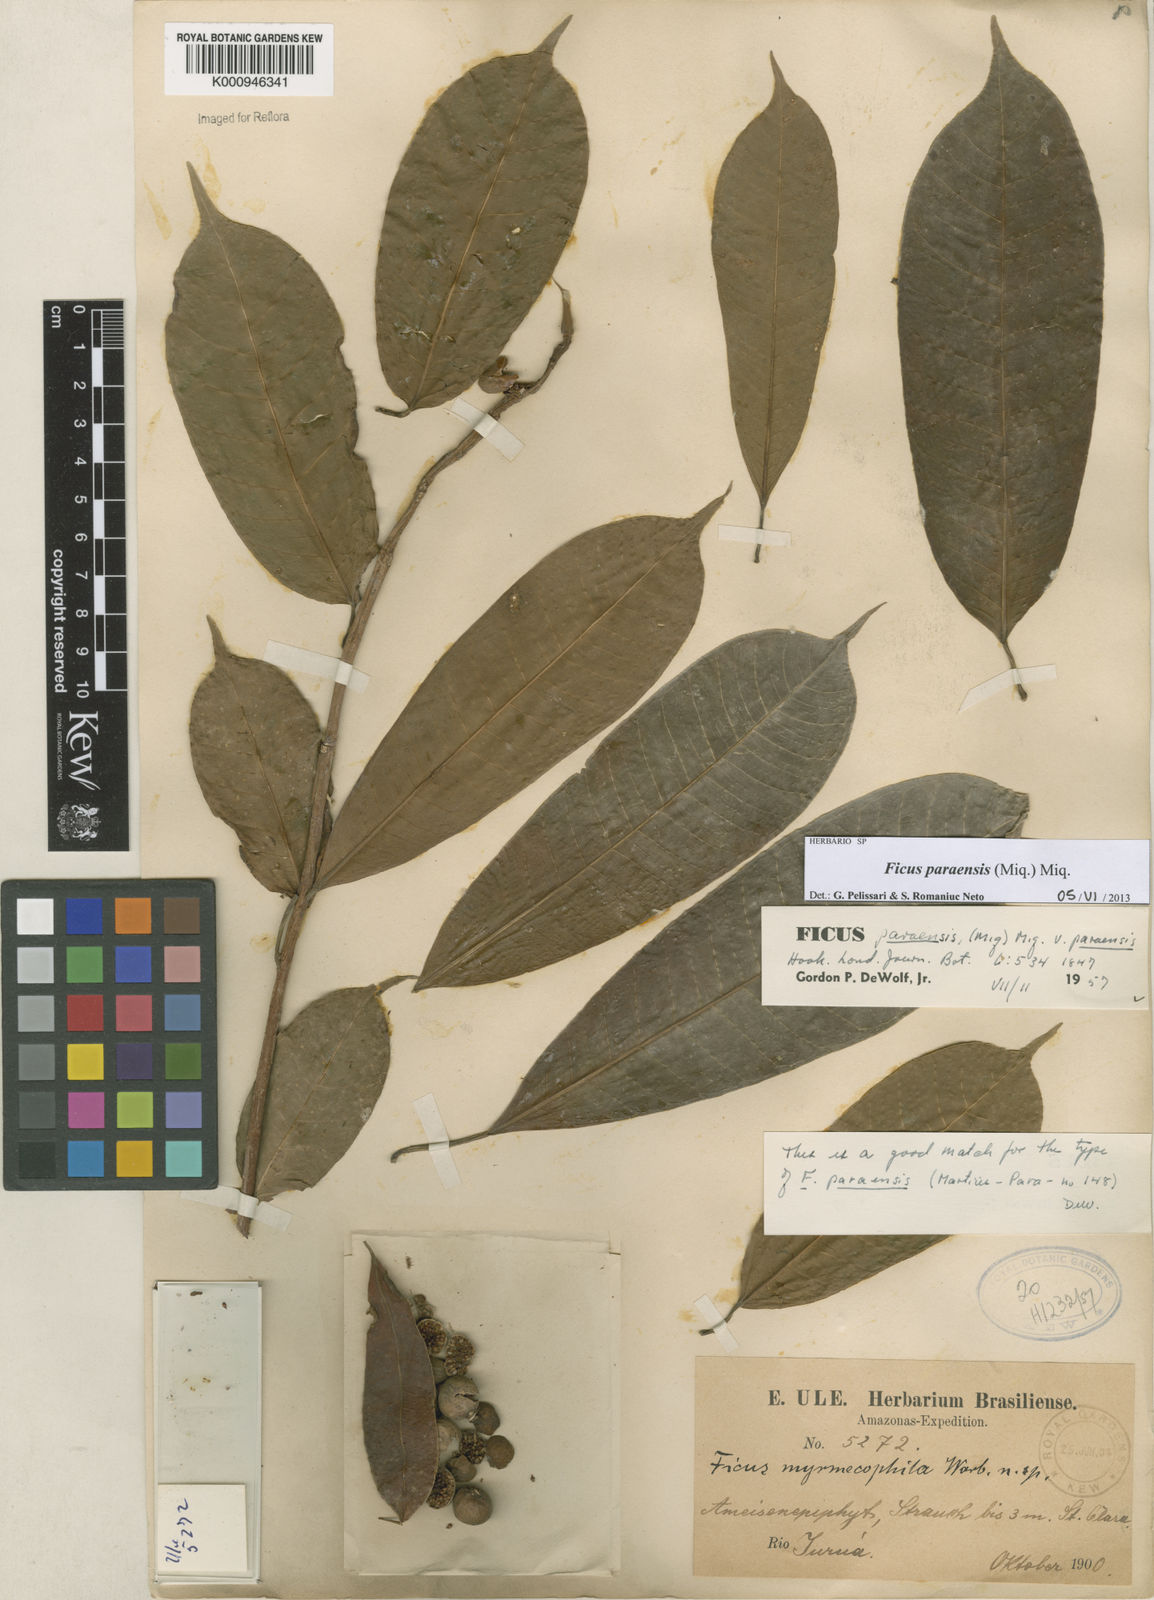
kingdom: Plantae
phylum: Tracheophyta
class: Magnoliopsida
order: Rosales
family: Moraceae
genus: Ficus
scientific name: Ficus paraensis
